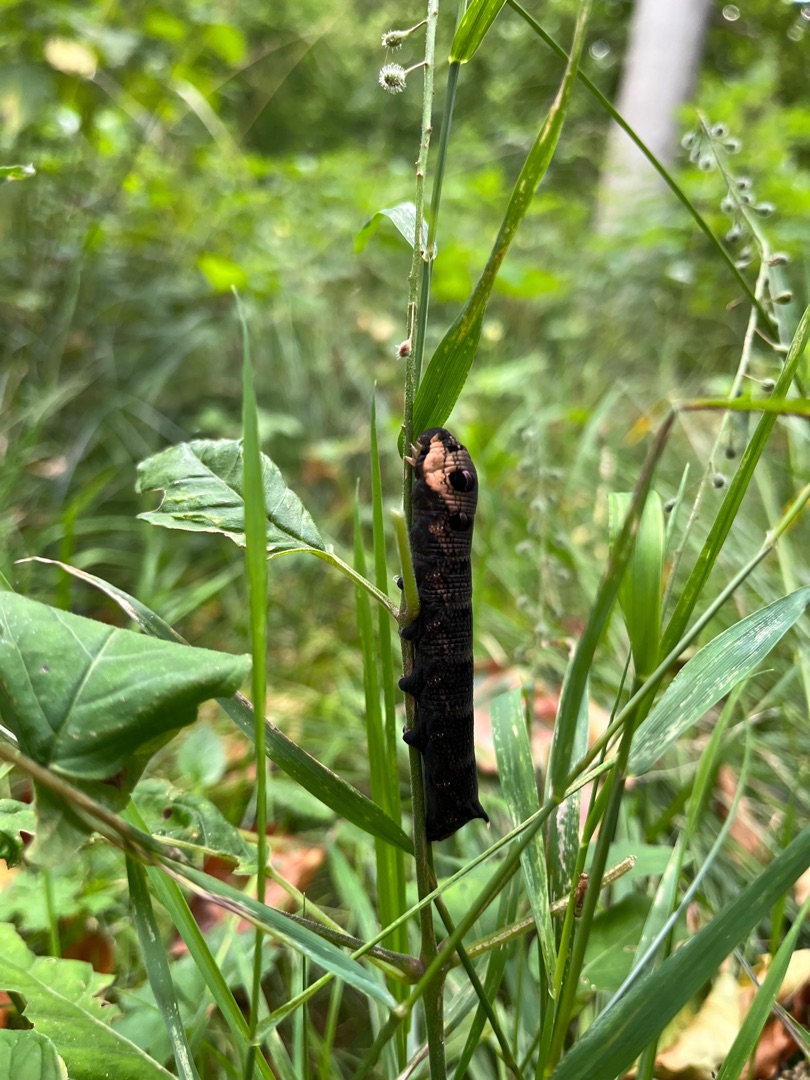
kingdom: Animalia
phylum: Arthropoda
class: Insecta
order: Lepidoptera
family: Sphingidae
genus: Deilephila
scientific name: Deilephila elpenor
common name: Dueurtsværmer
